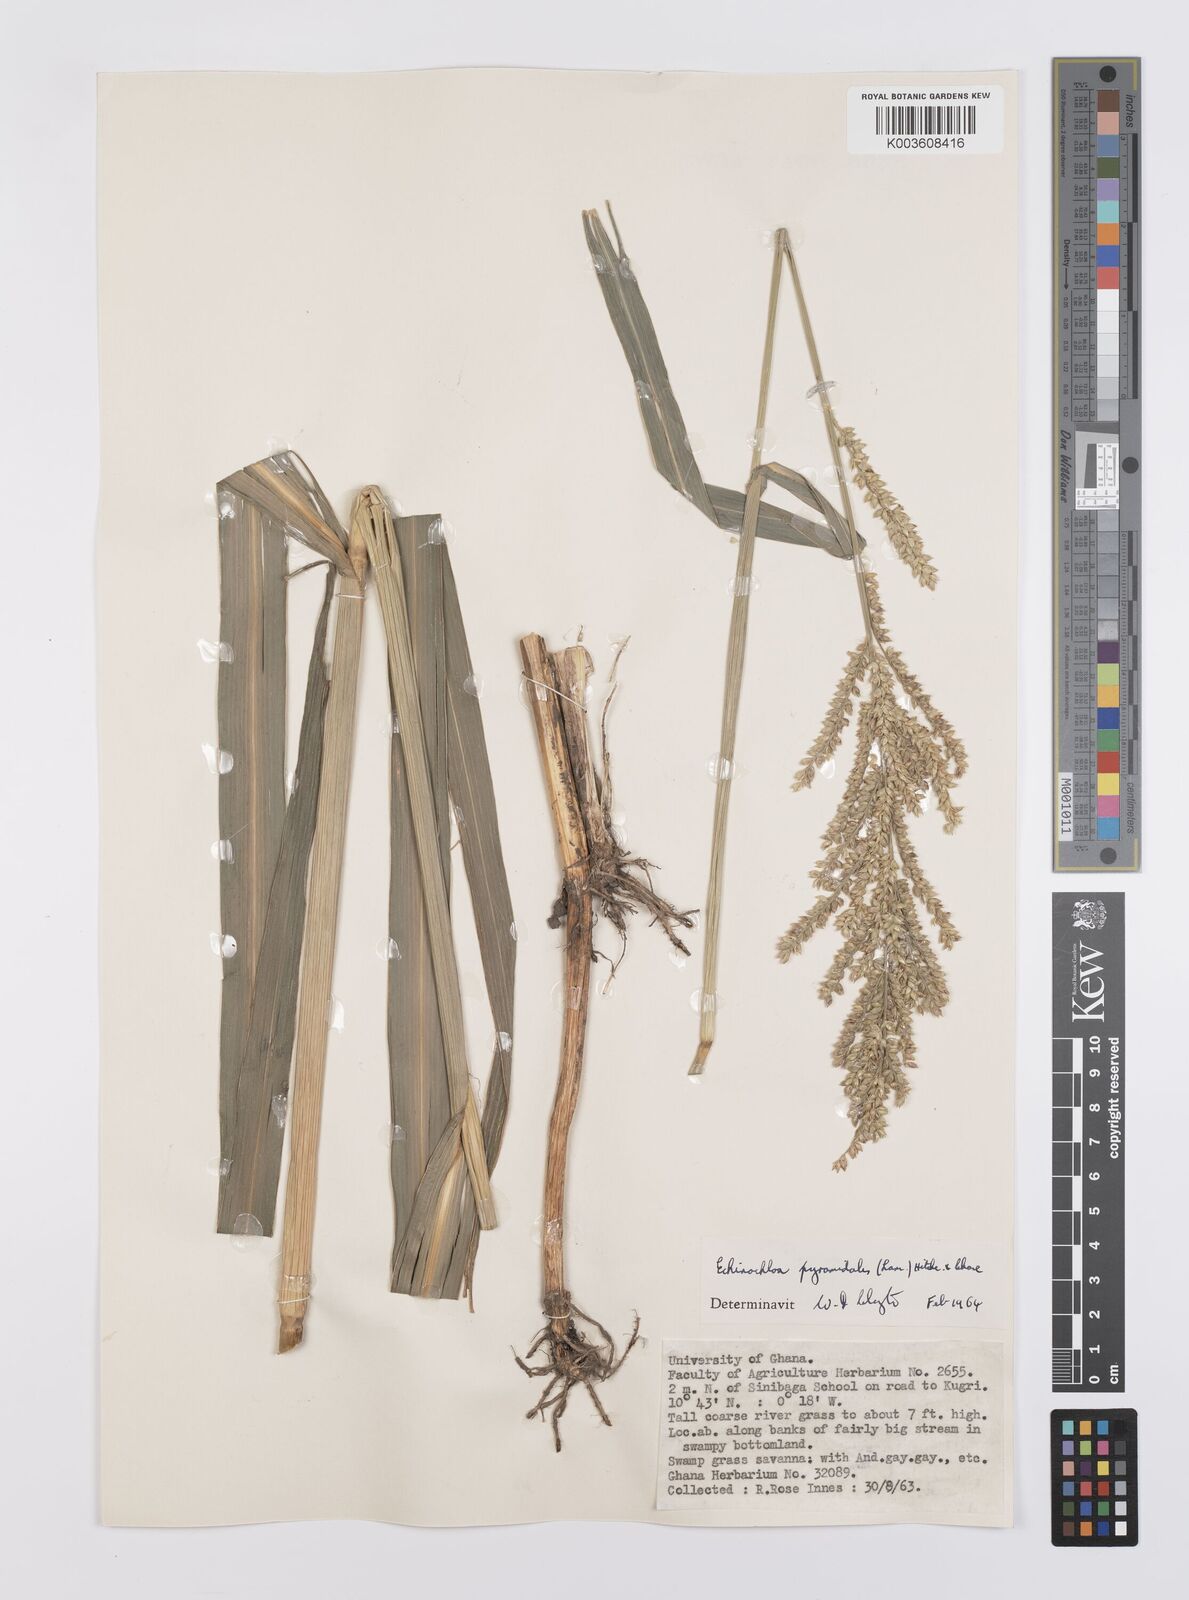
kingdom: Plantae
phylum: Tracheophyta
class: Liliopsida
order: Poales
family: Poaceae
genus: Echinochloa
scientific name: Echinochloa pyramidalis
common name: Antelope grass
